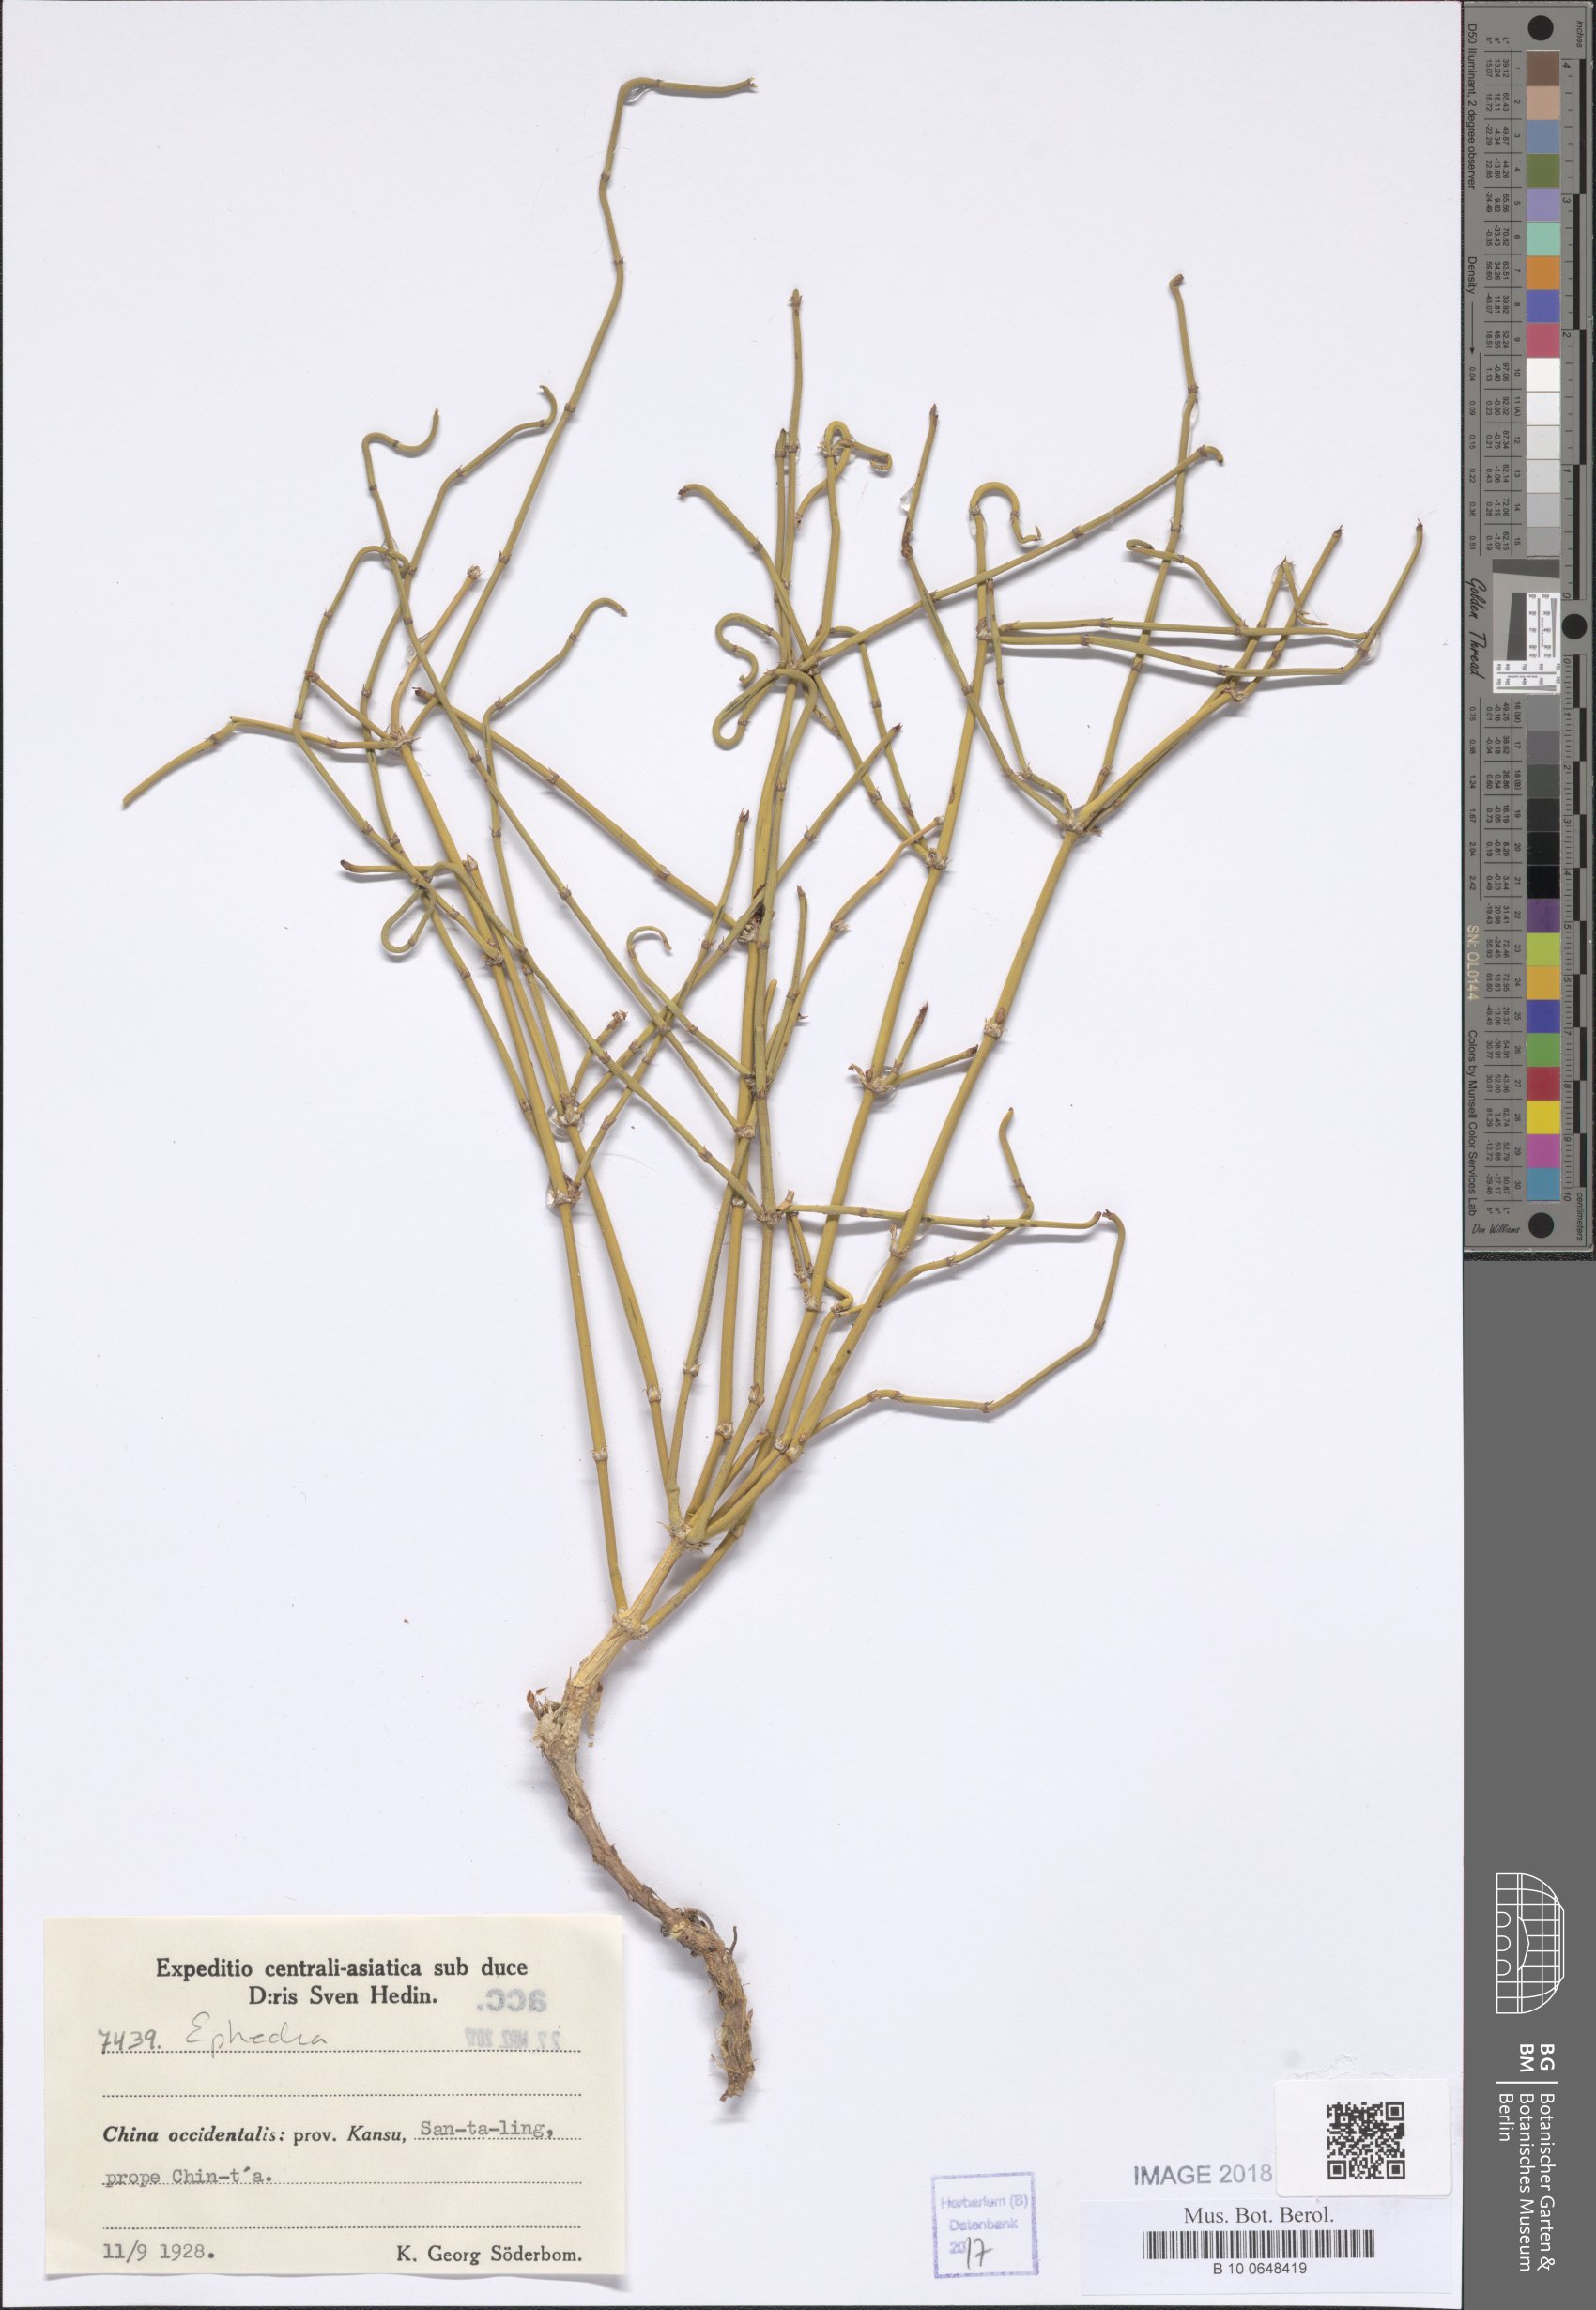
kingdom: Plantae
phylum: Tracheophyta
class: Gnetopsida
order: Ephedrales
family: Ephedraceae
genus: Ephedra
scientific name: Ephedra
